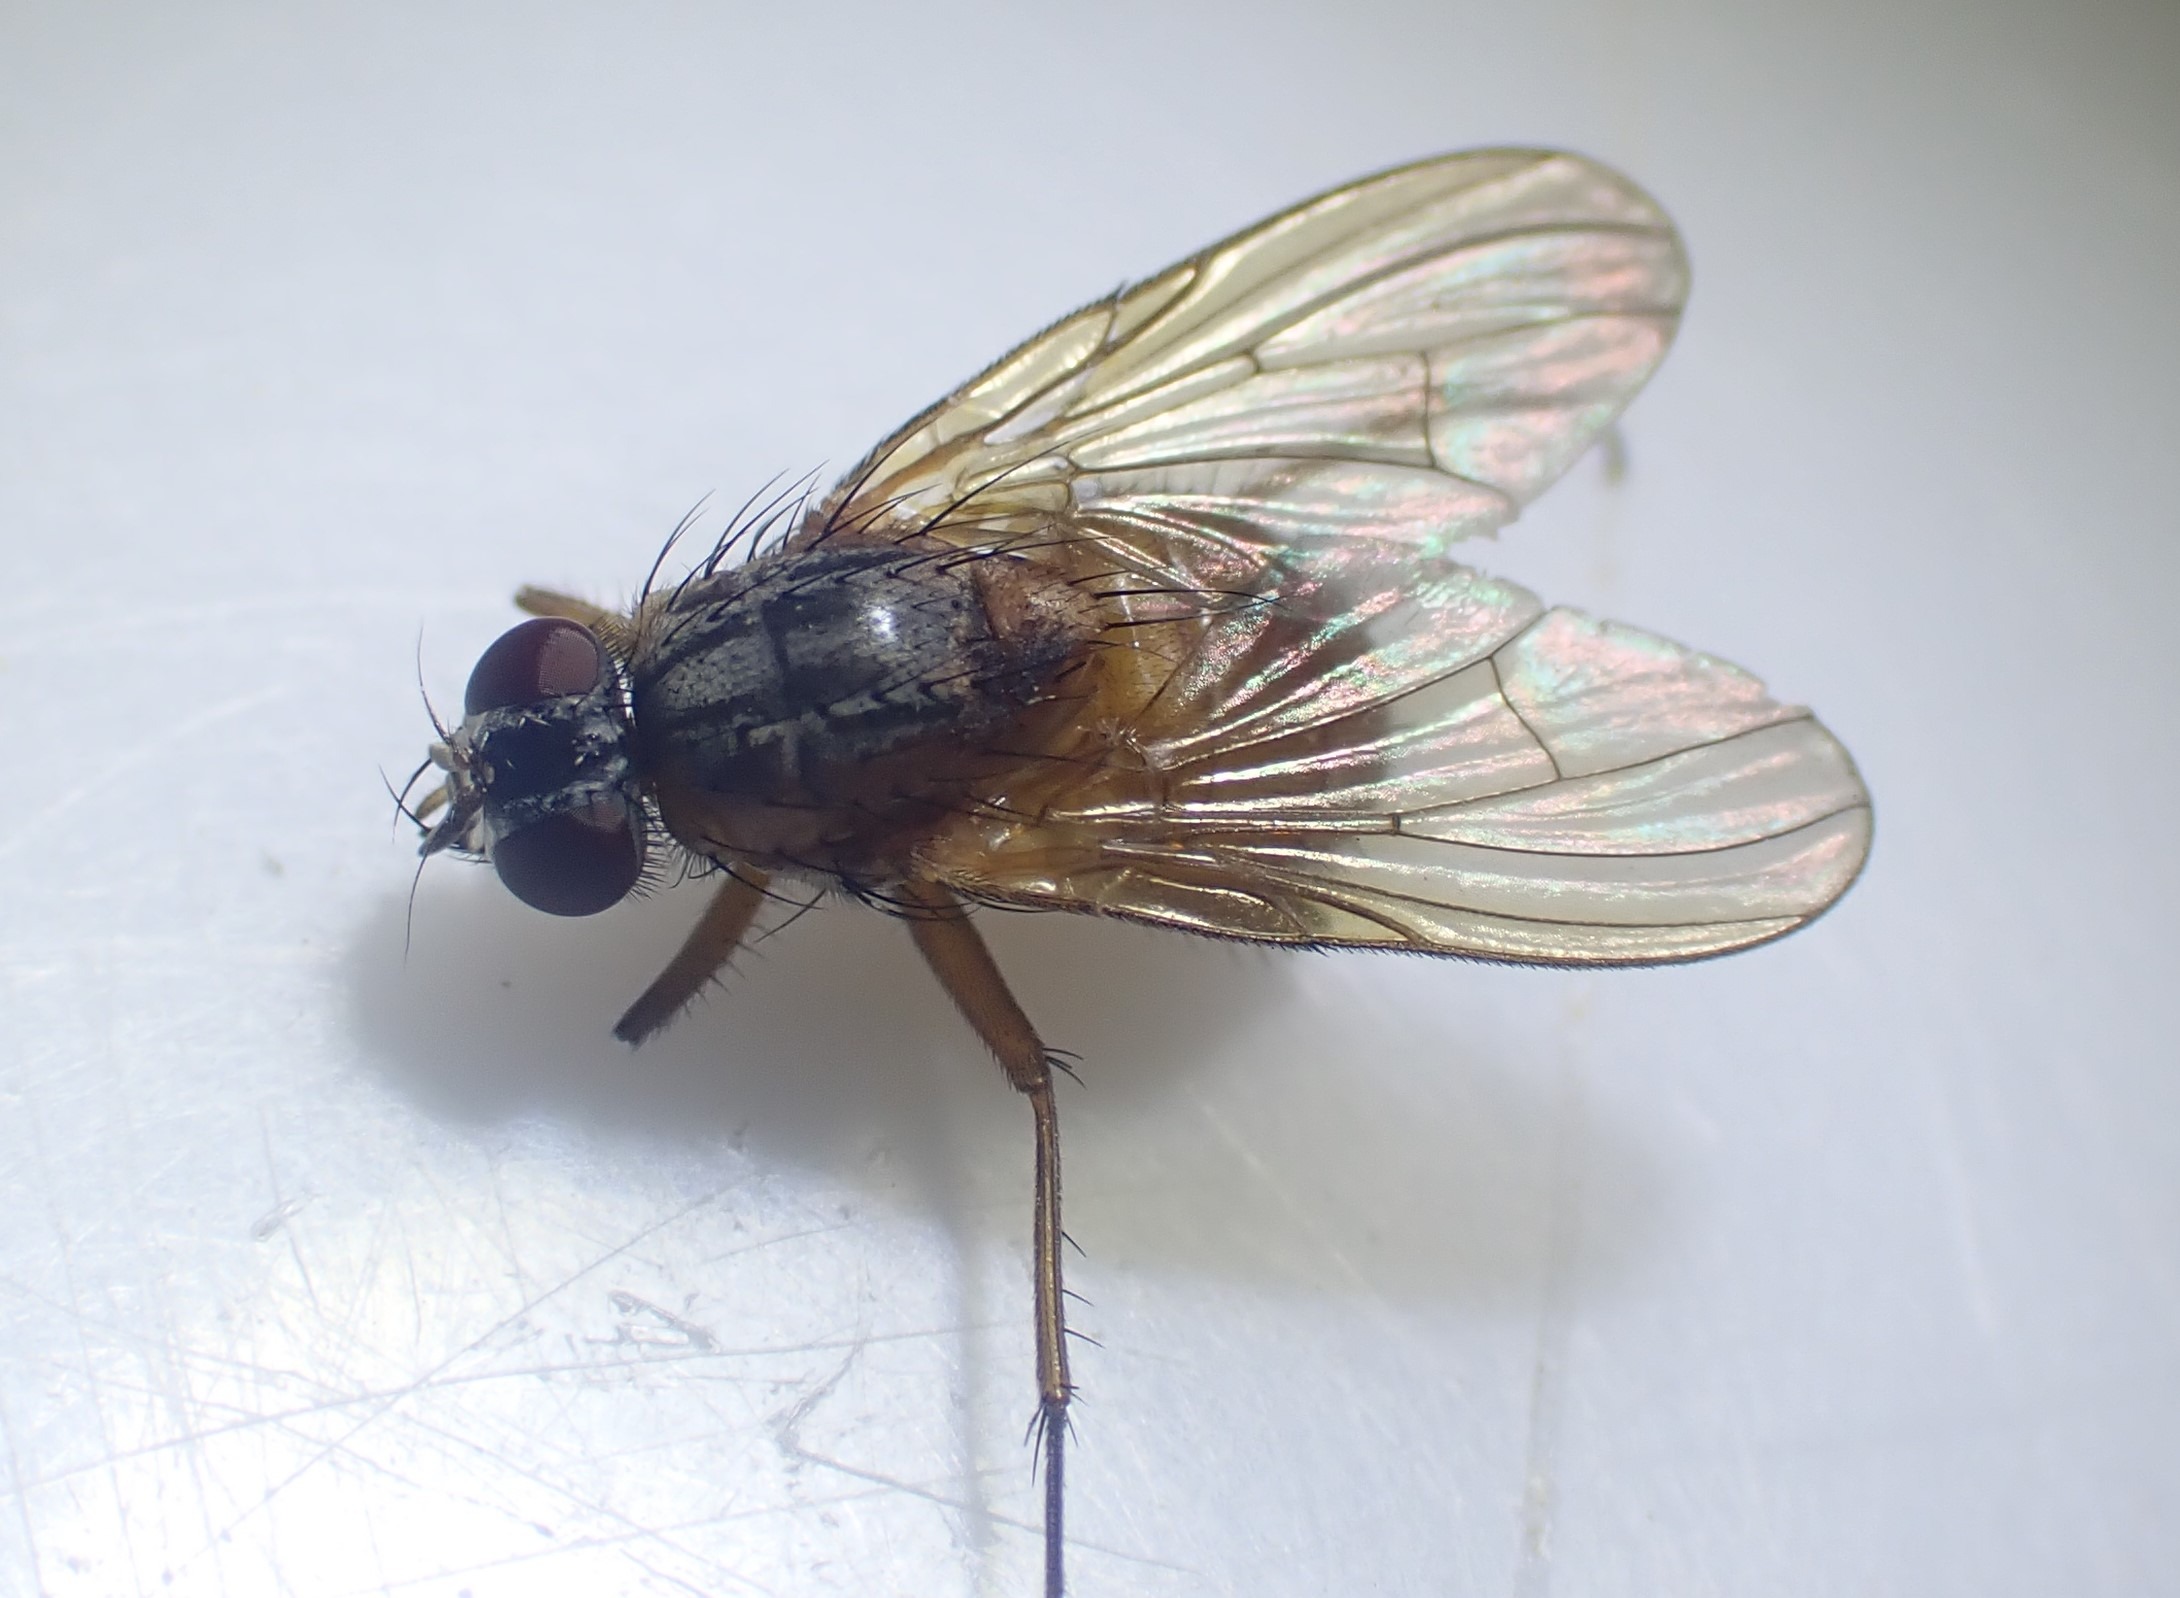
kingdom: Animalia
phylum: Arthropoda
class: Insecta
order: Diptera
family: Muscidae
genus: Phaonia
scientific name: Phaonia rufiventris
